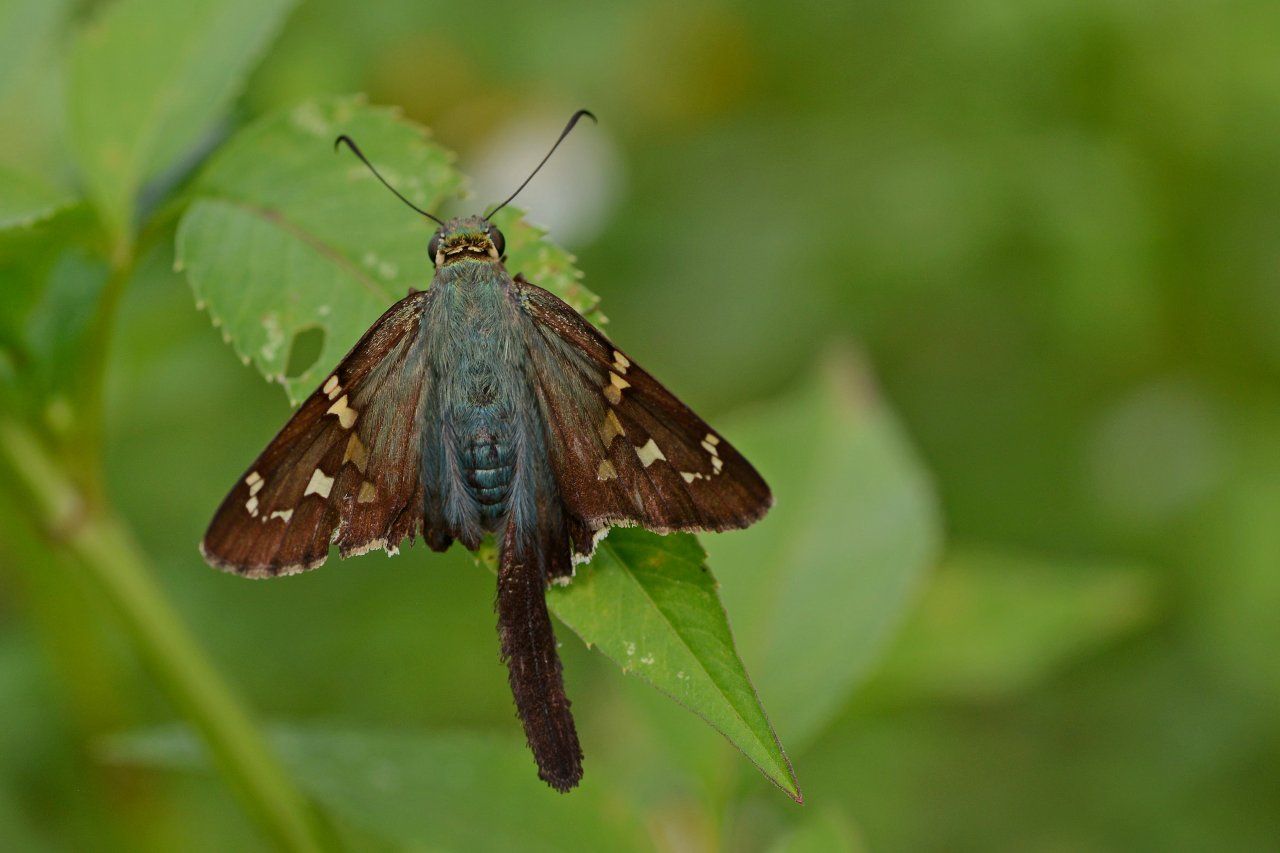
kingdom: Animalia
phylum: Arthropoda
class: Insecta
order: Lepidoptera
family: Hesperiidae
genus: Urbanus
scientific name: Urbanus proteus
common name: Long-tailed Skipper
